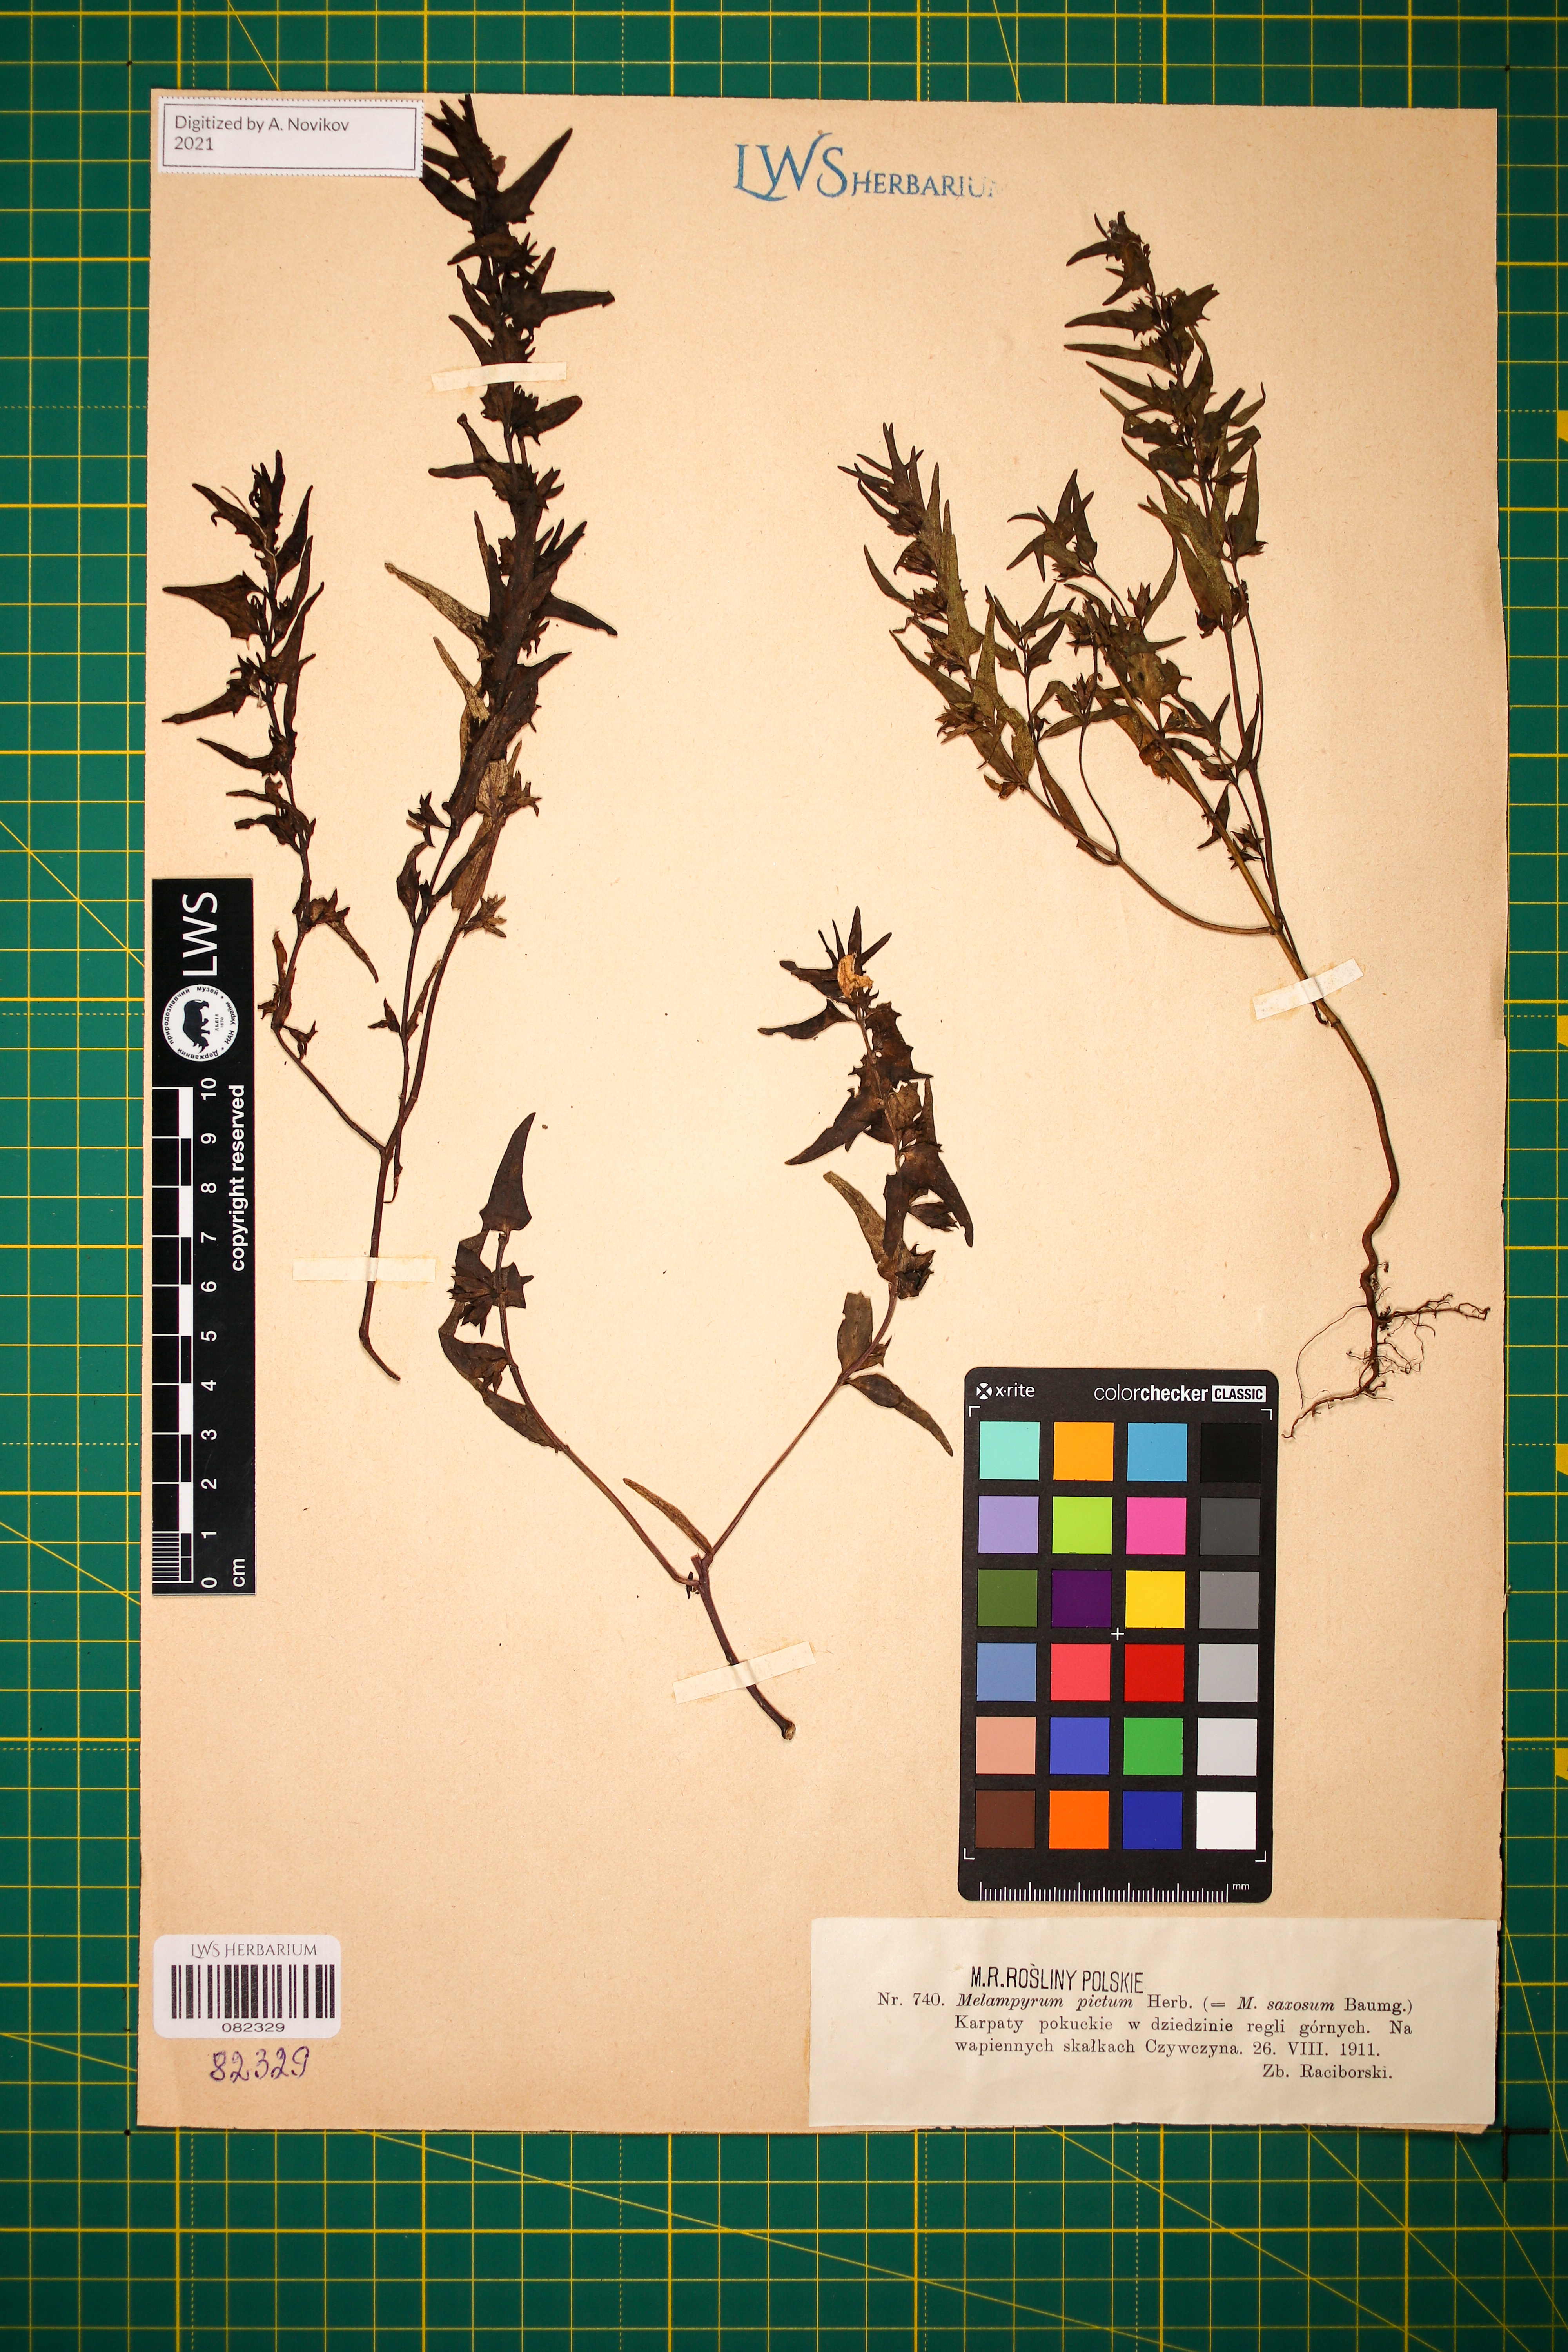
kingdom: Plantae
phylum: Tracheophyta
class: Magnoliopsida
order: Lamiales
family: Orobanchaceae
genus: Melampyrum
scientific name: Melampyrum saxosum
